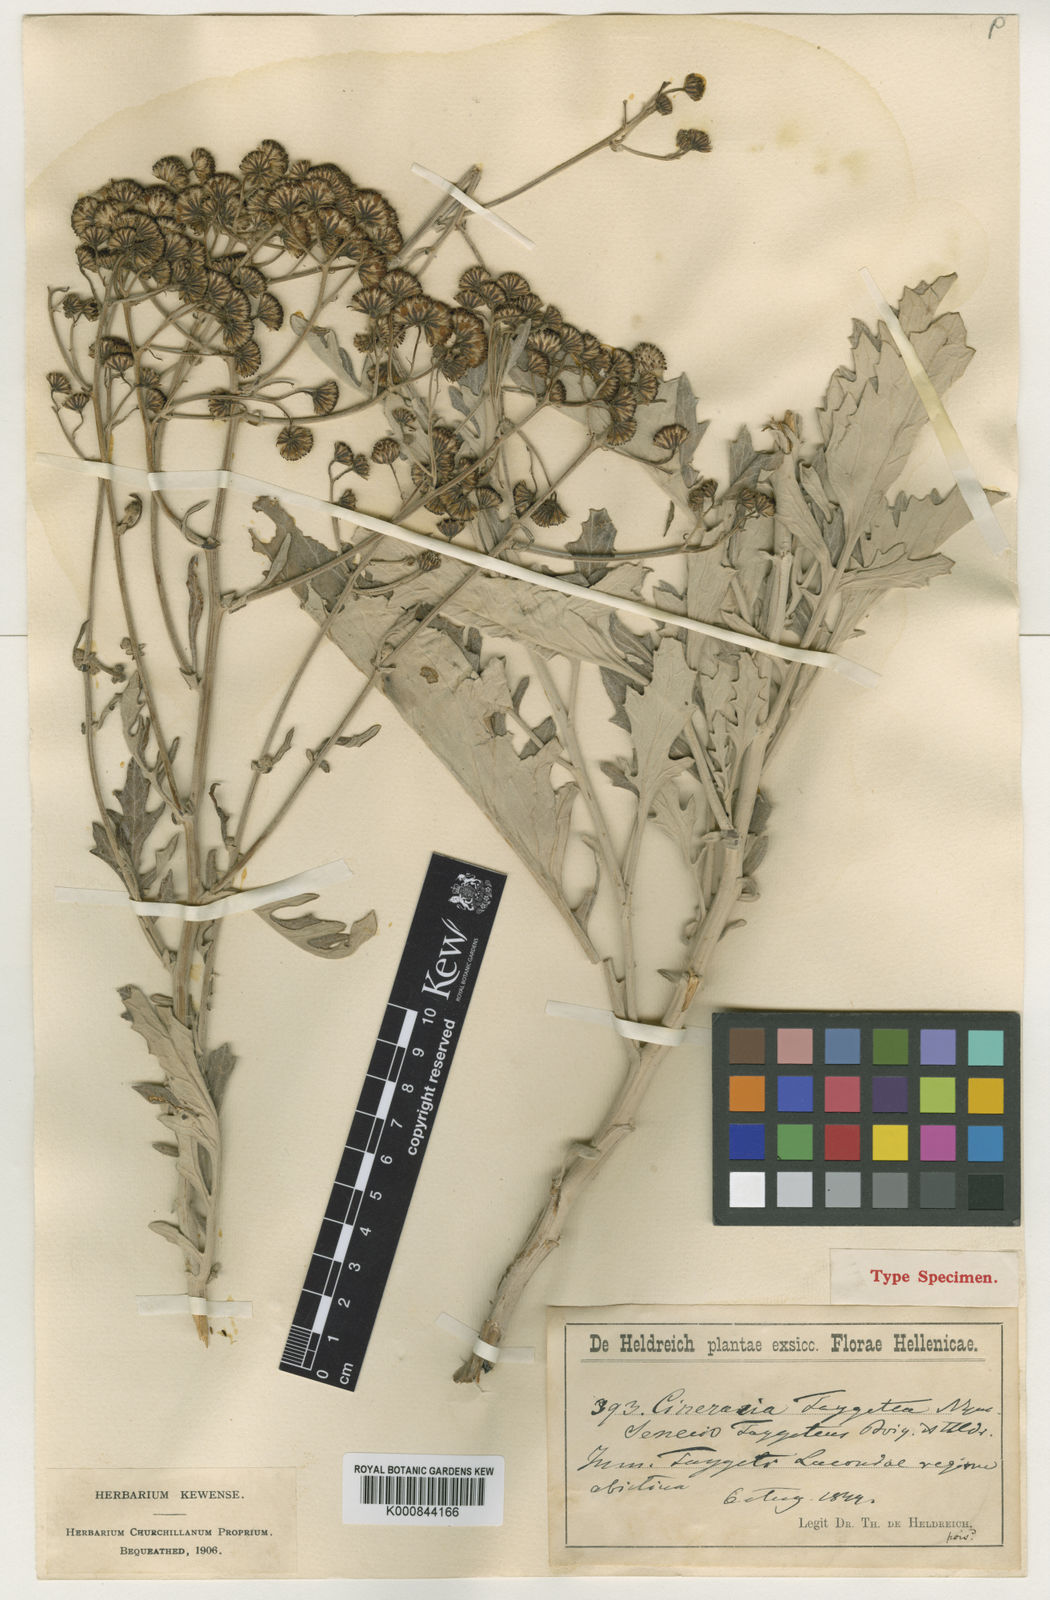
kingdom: Plantae
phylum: Tracheophyta
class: Magnoliopsida
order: Asterales
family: Asteraceae
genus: Jacobaea
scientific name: Jacobaea ambigua
